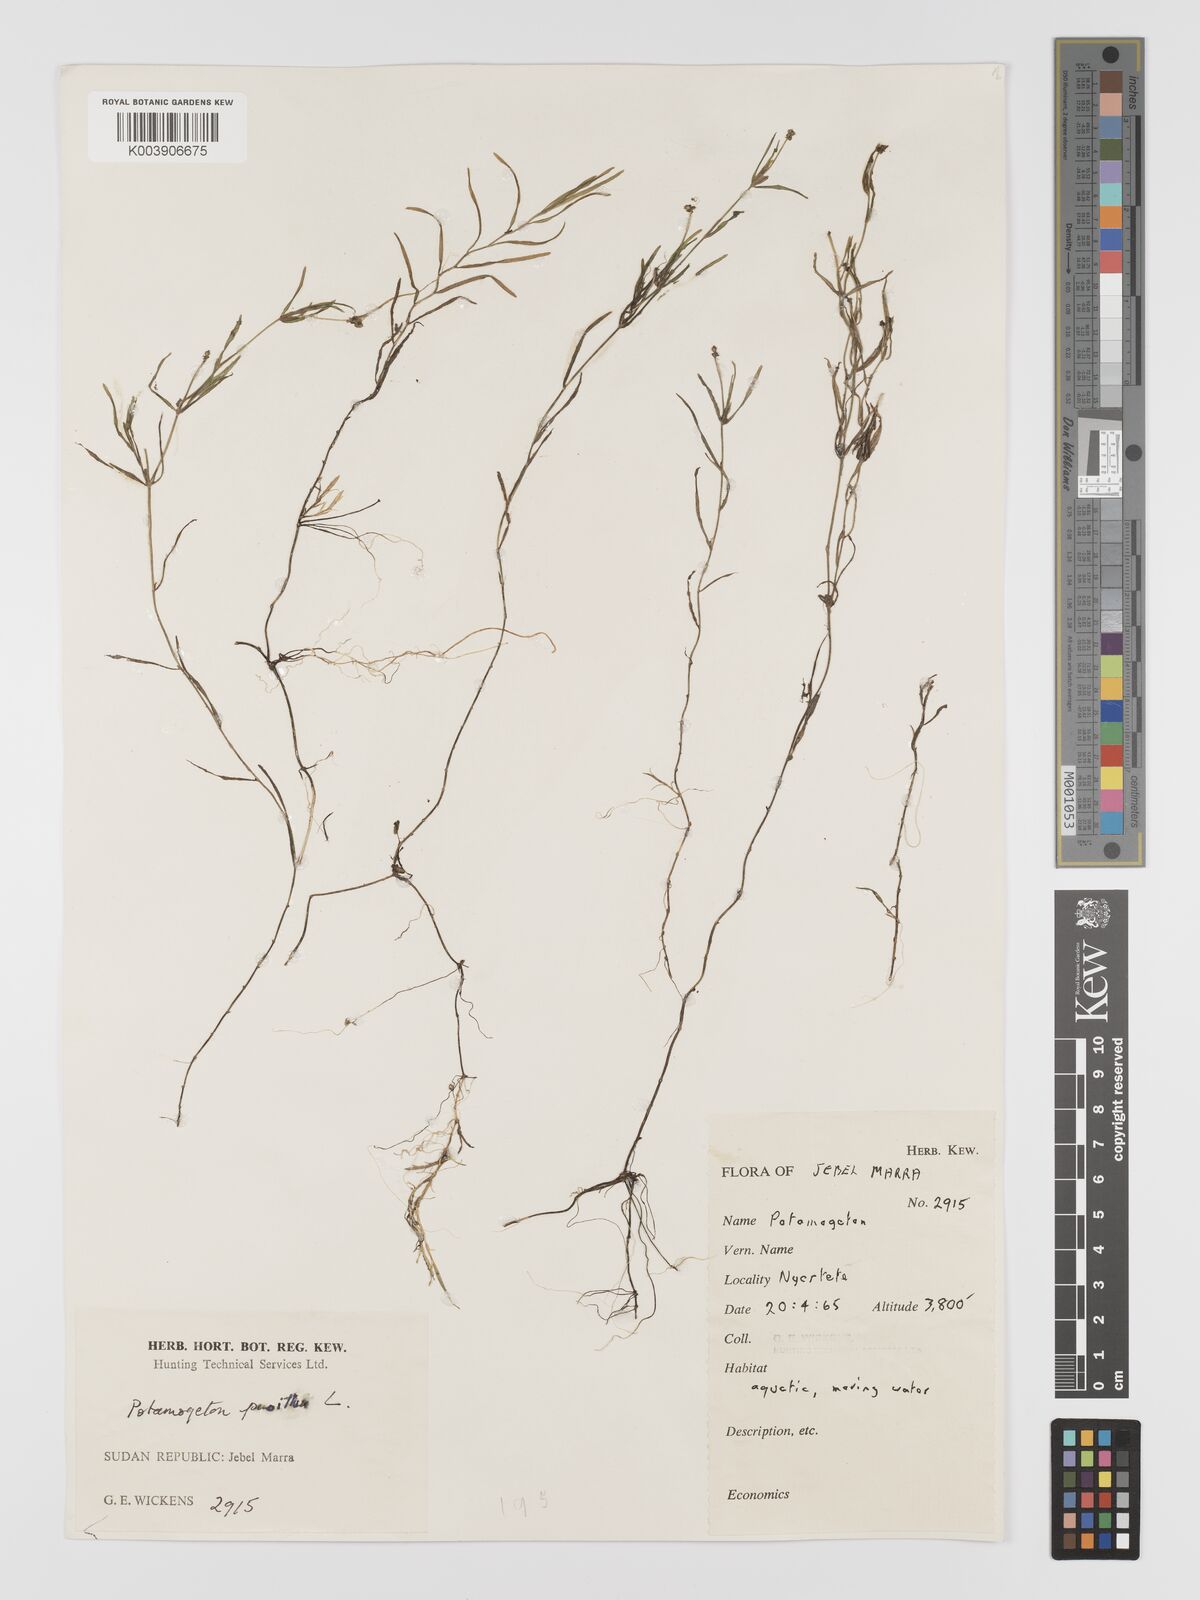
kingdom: Plantae
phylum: Tracheophyta
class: Liliopsida
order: Alismatales
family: Potamogetonaceae
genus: Potamogeton
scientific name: Potamogeton pusillus
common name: Lesser pondweed
